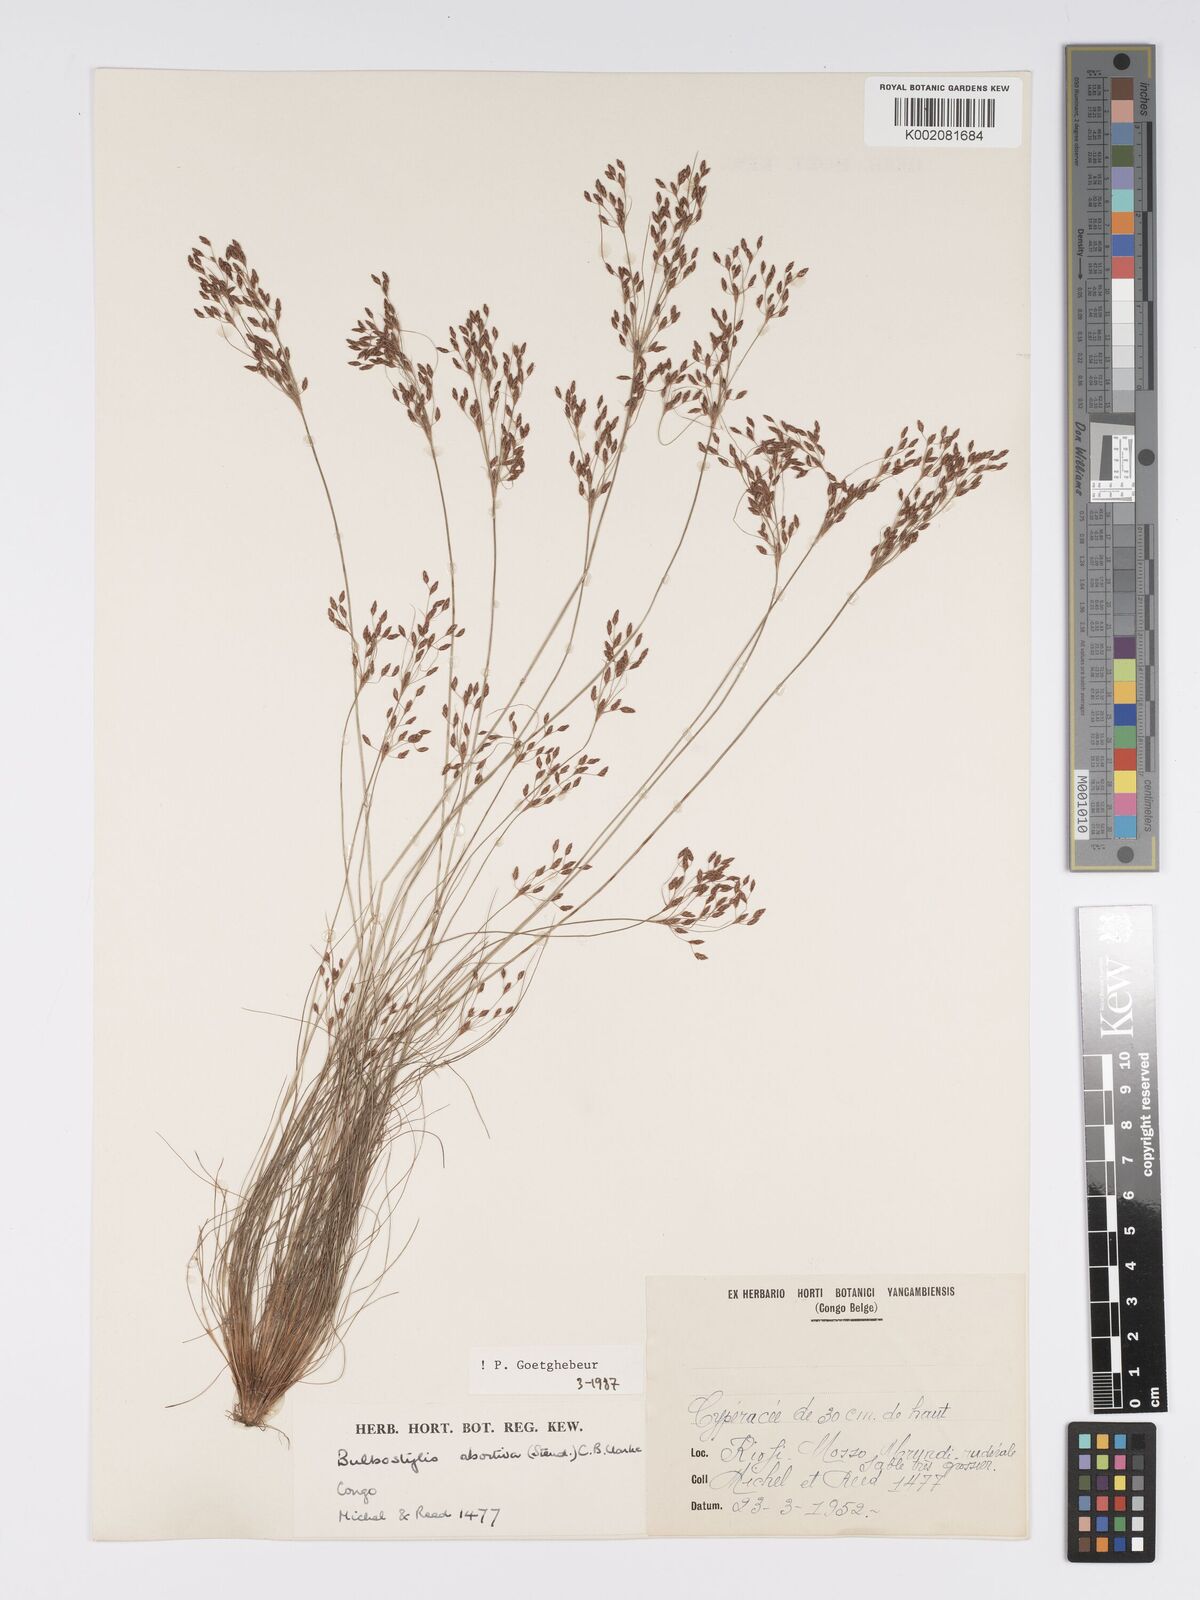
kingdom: Plantae
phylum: Tracheophyta
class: Liliopsida
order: Poales
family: Cyperaceae
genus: Bulbostylis
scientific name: Bulbostylis abortiva
